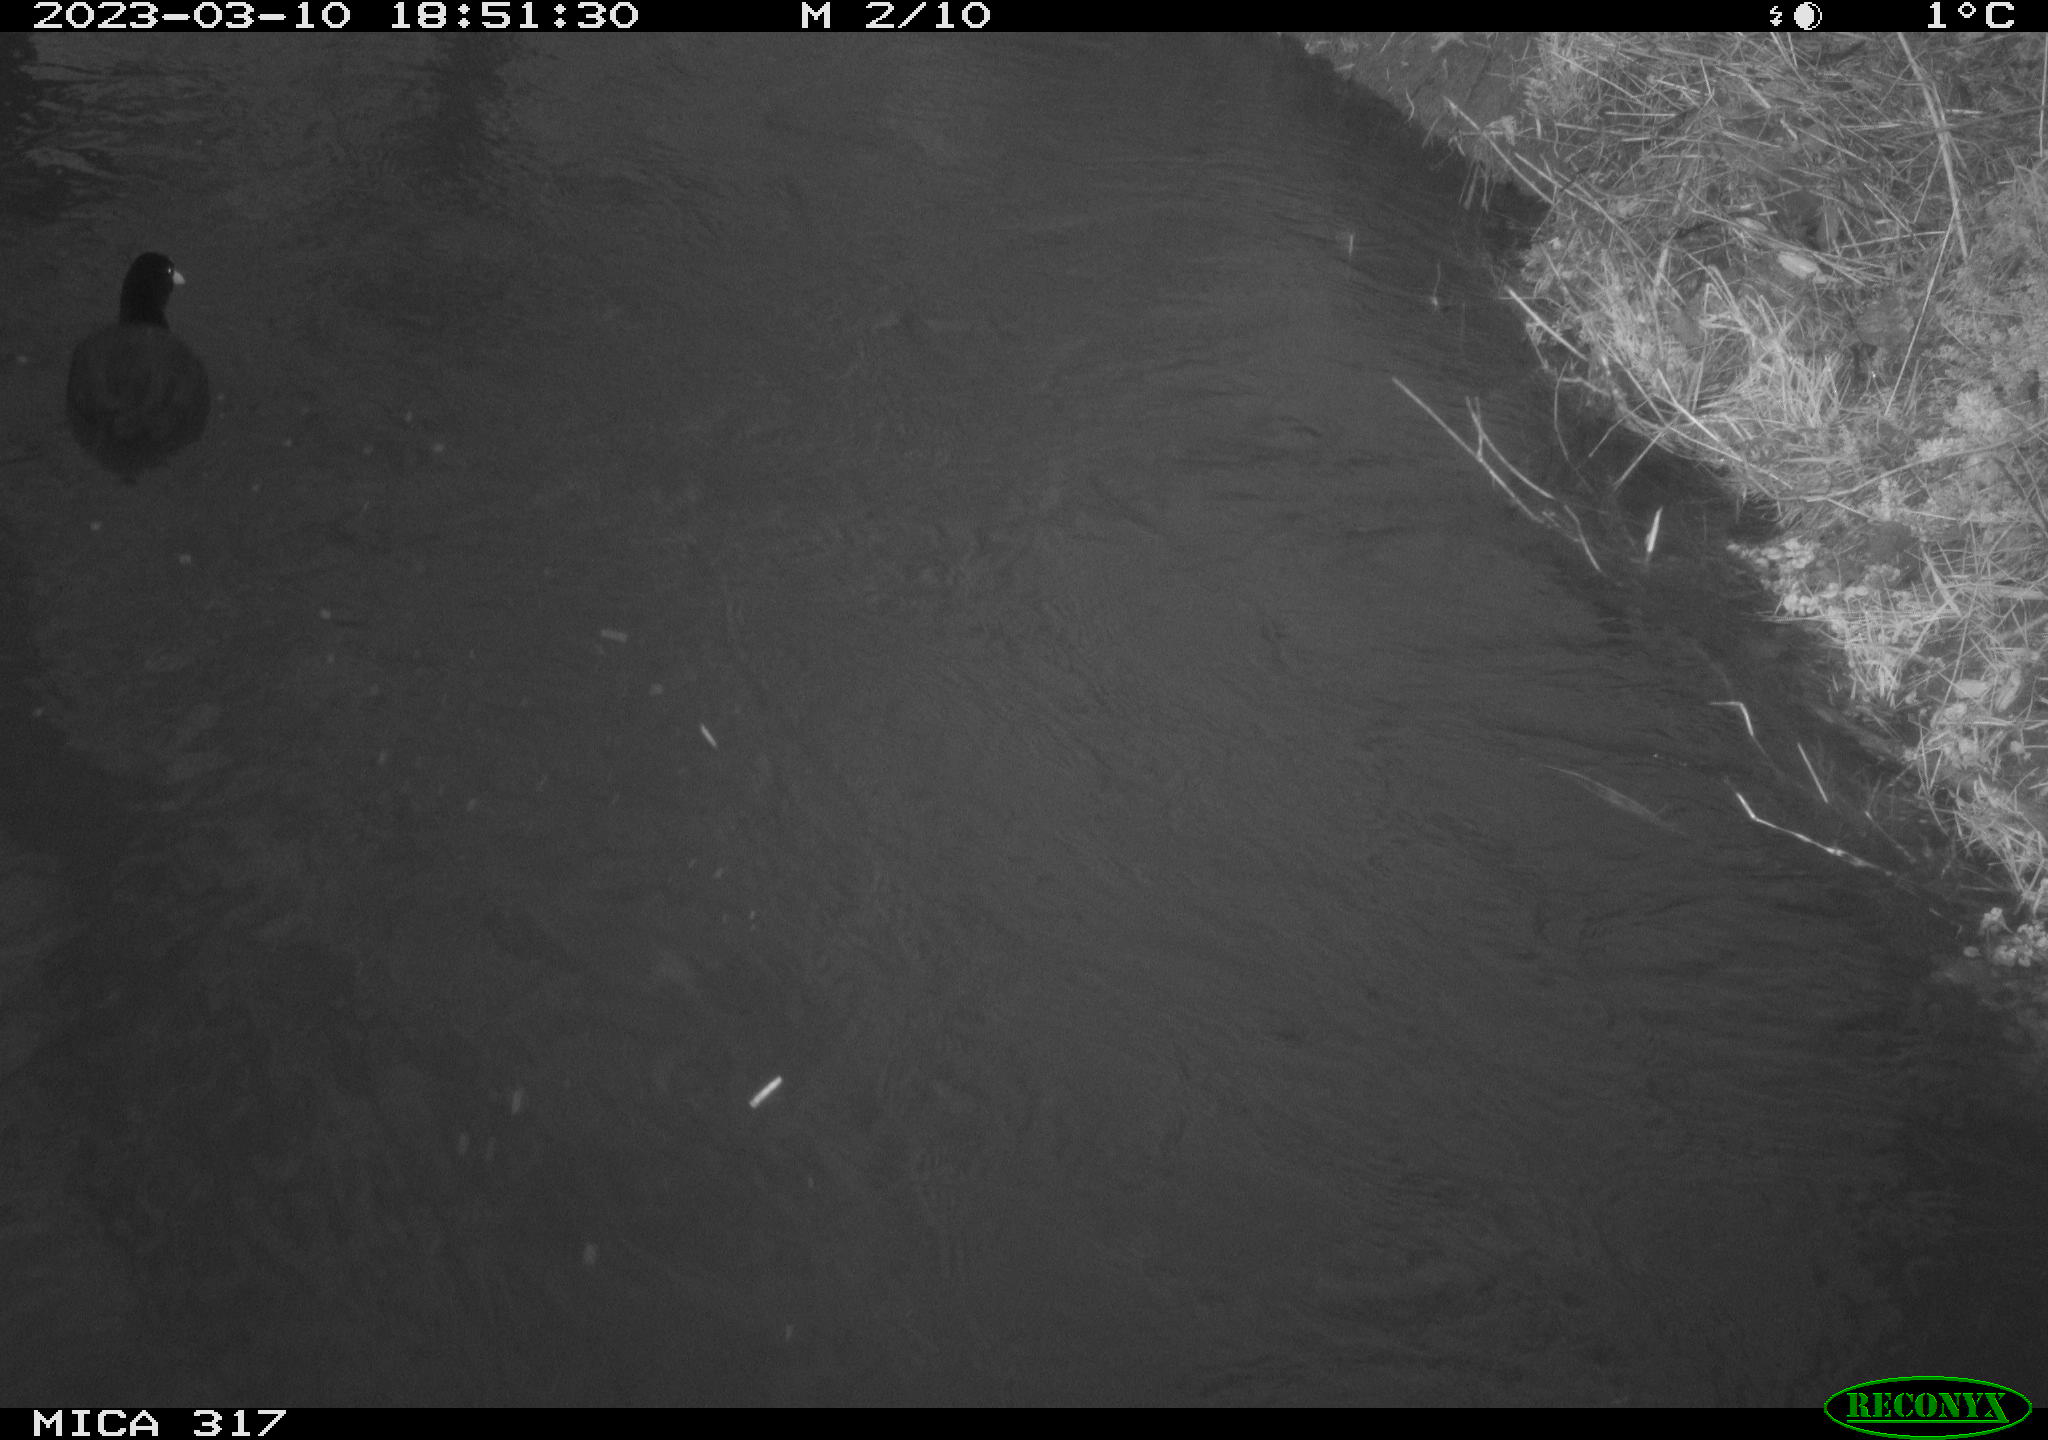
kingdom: Animalia
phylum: Chordata
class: Aves
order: Gruiformes
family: Rallidae
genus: Fulica
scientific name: Fulica atra
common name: Eurasian coot
